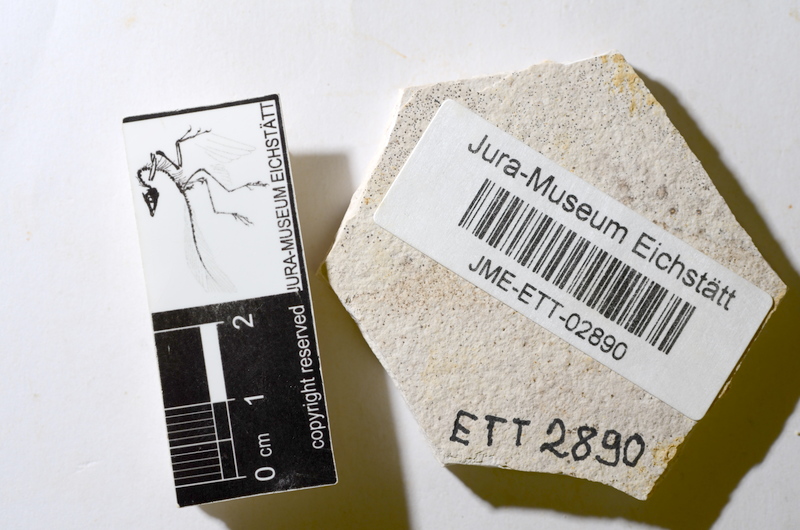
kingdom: Animalia
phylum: Chordata
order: Salmoniformes
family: Orthogonikleithridae
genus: Orthogonikleithrus
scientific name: Orthogonikleithrus hoelli
